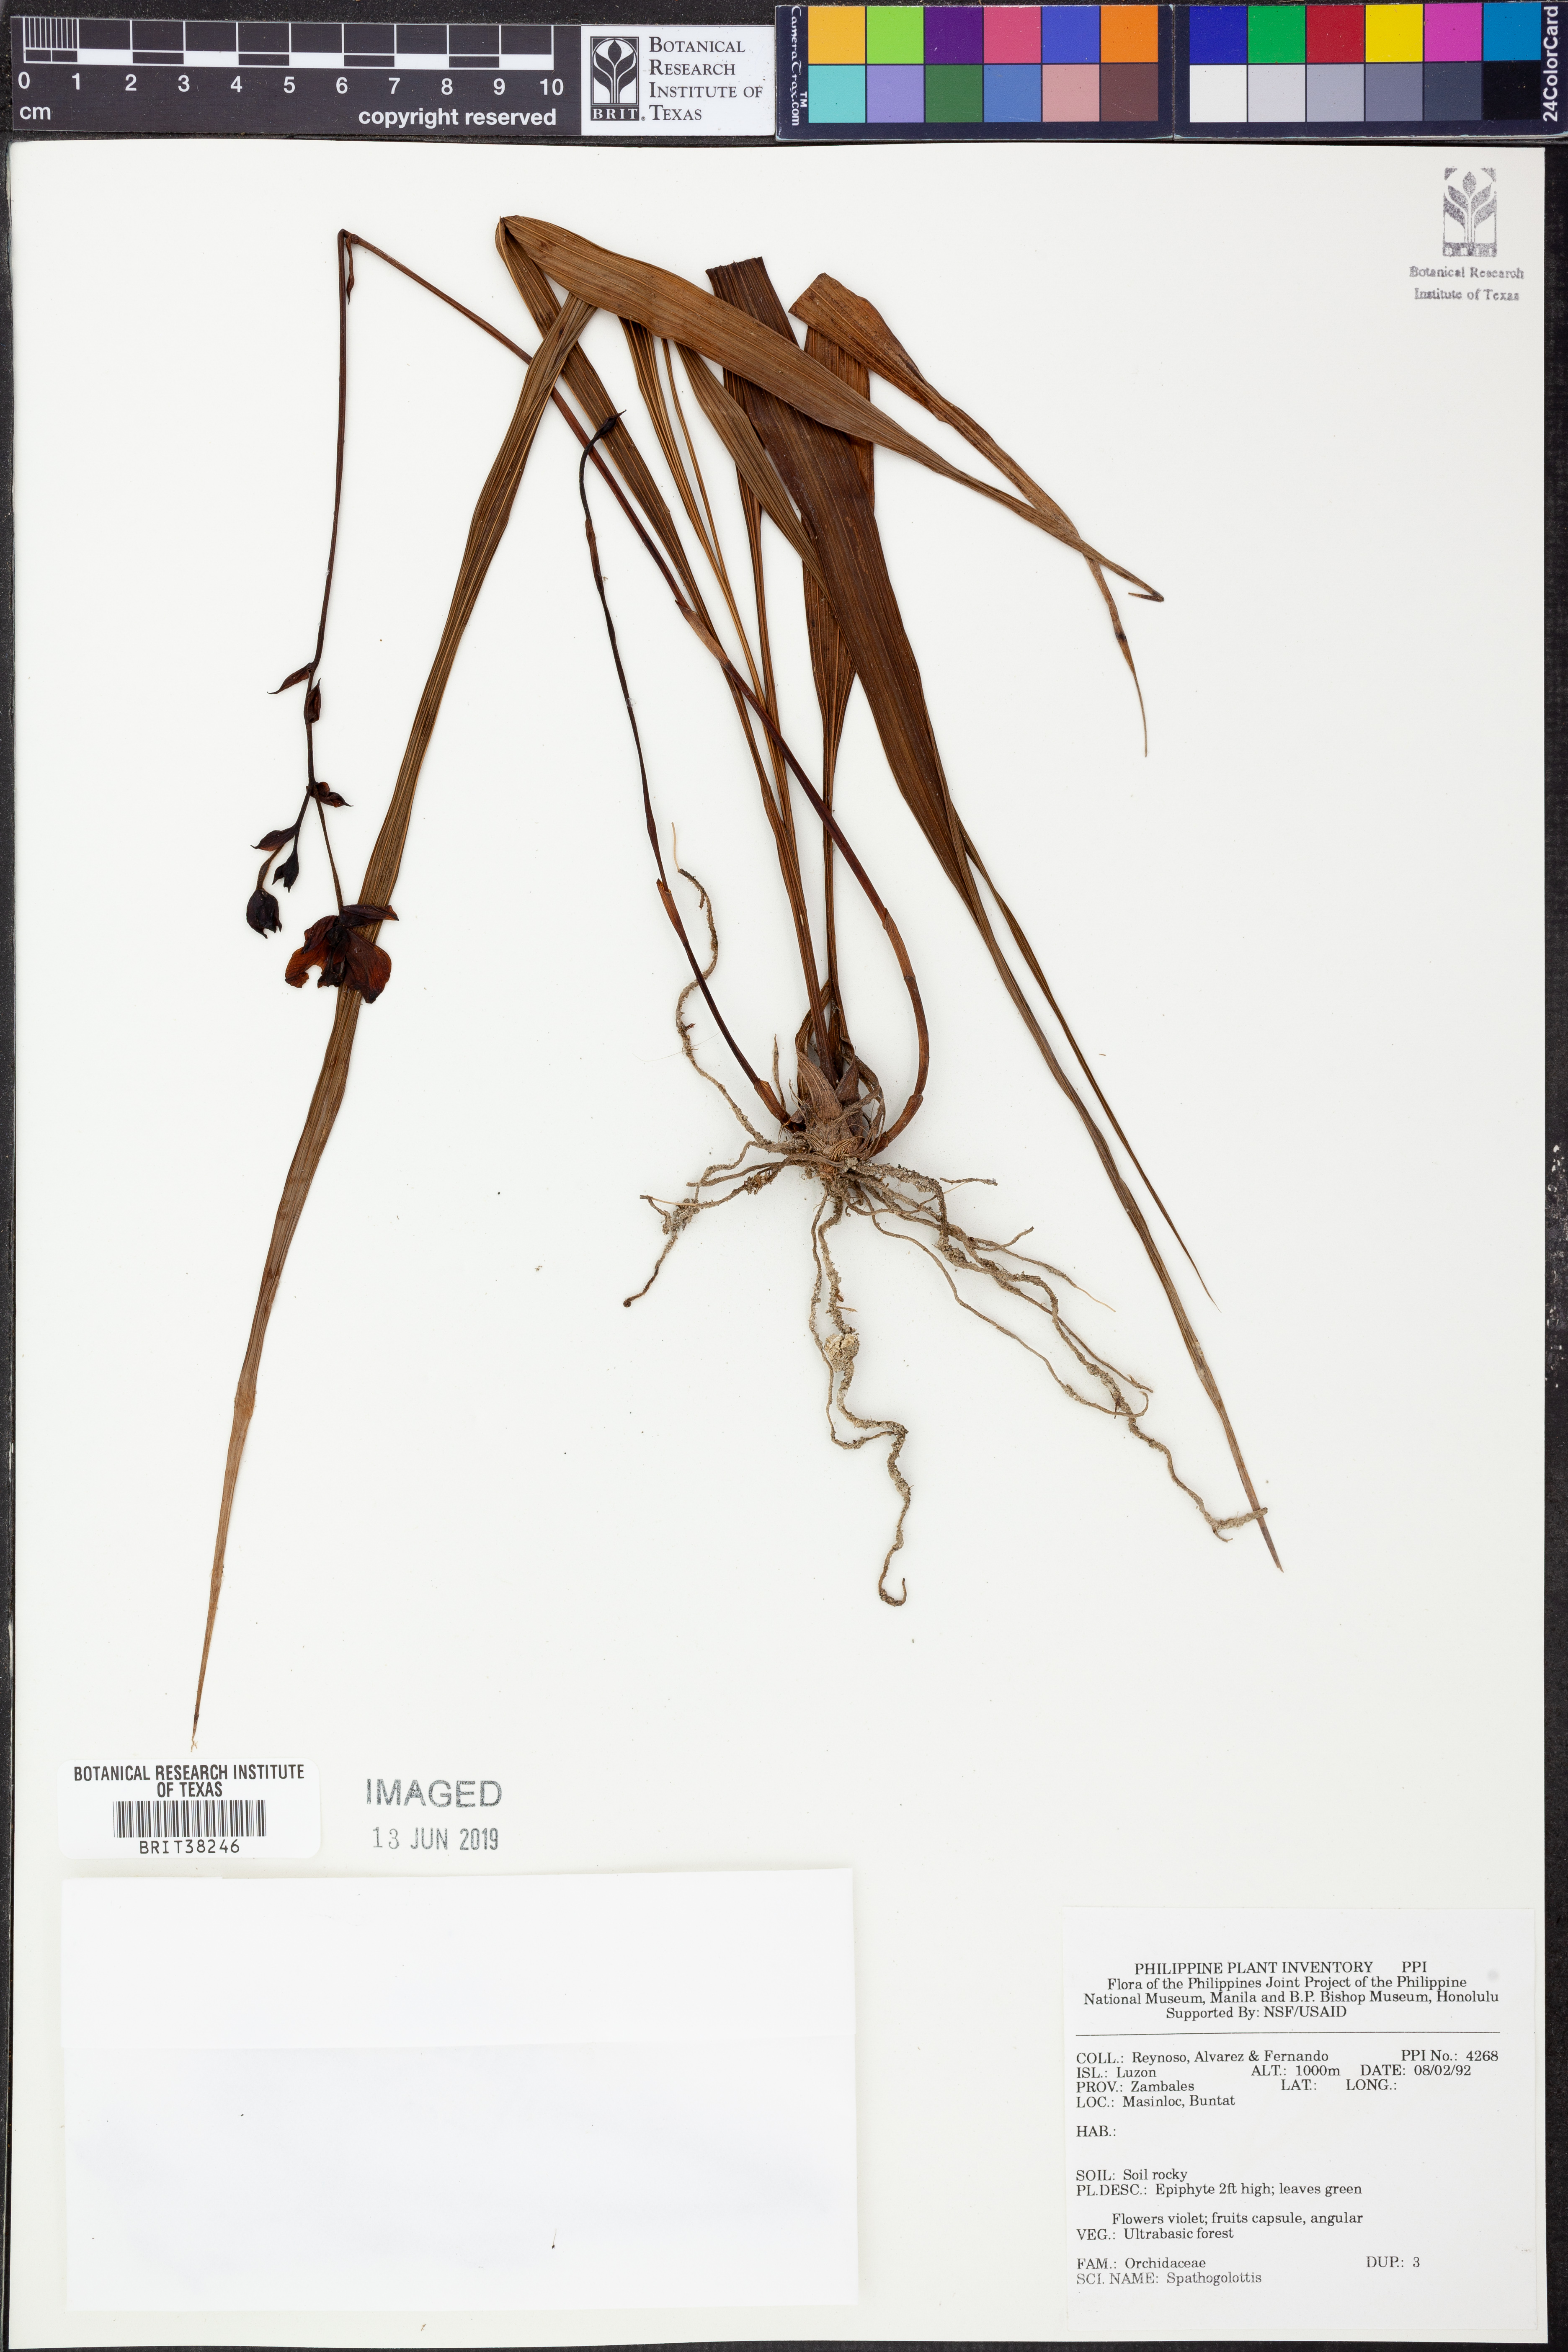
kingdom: Plantae
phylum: Tracheophyta
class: Liliopsida
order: Asparagales
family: Orchidaceae
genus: Spathoglottis
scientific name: Spathoglottis
